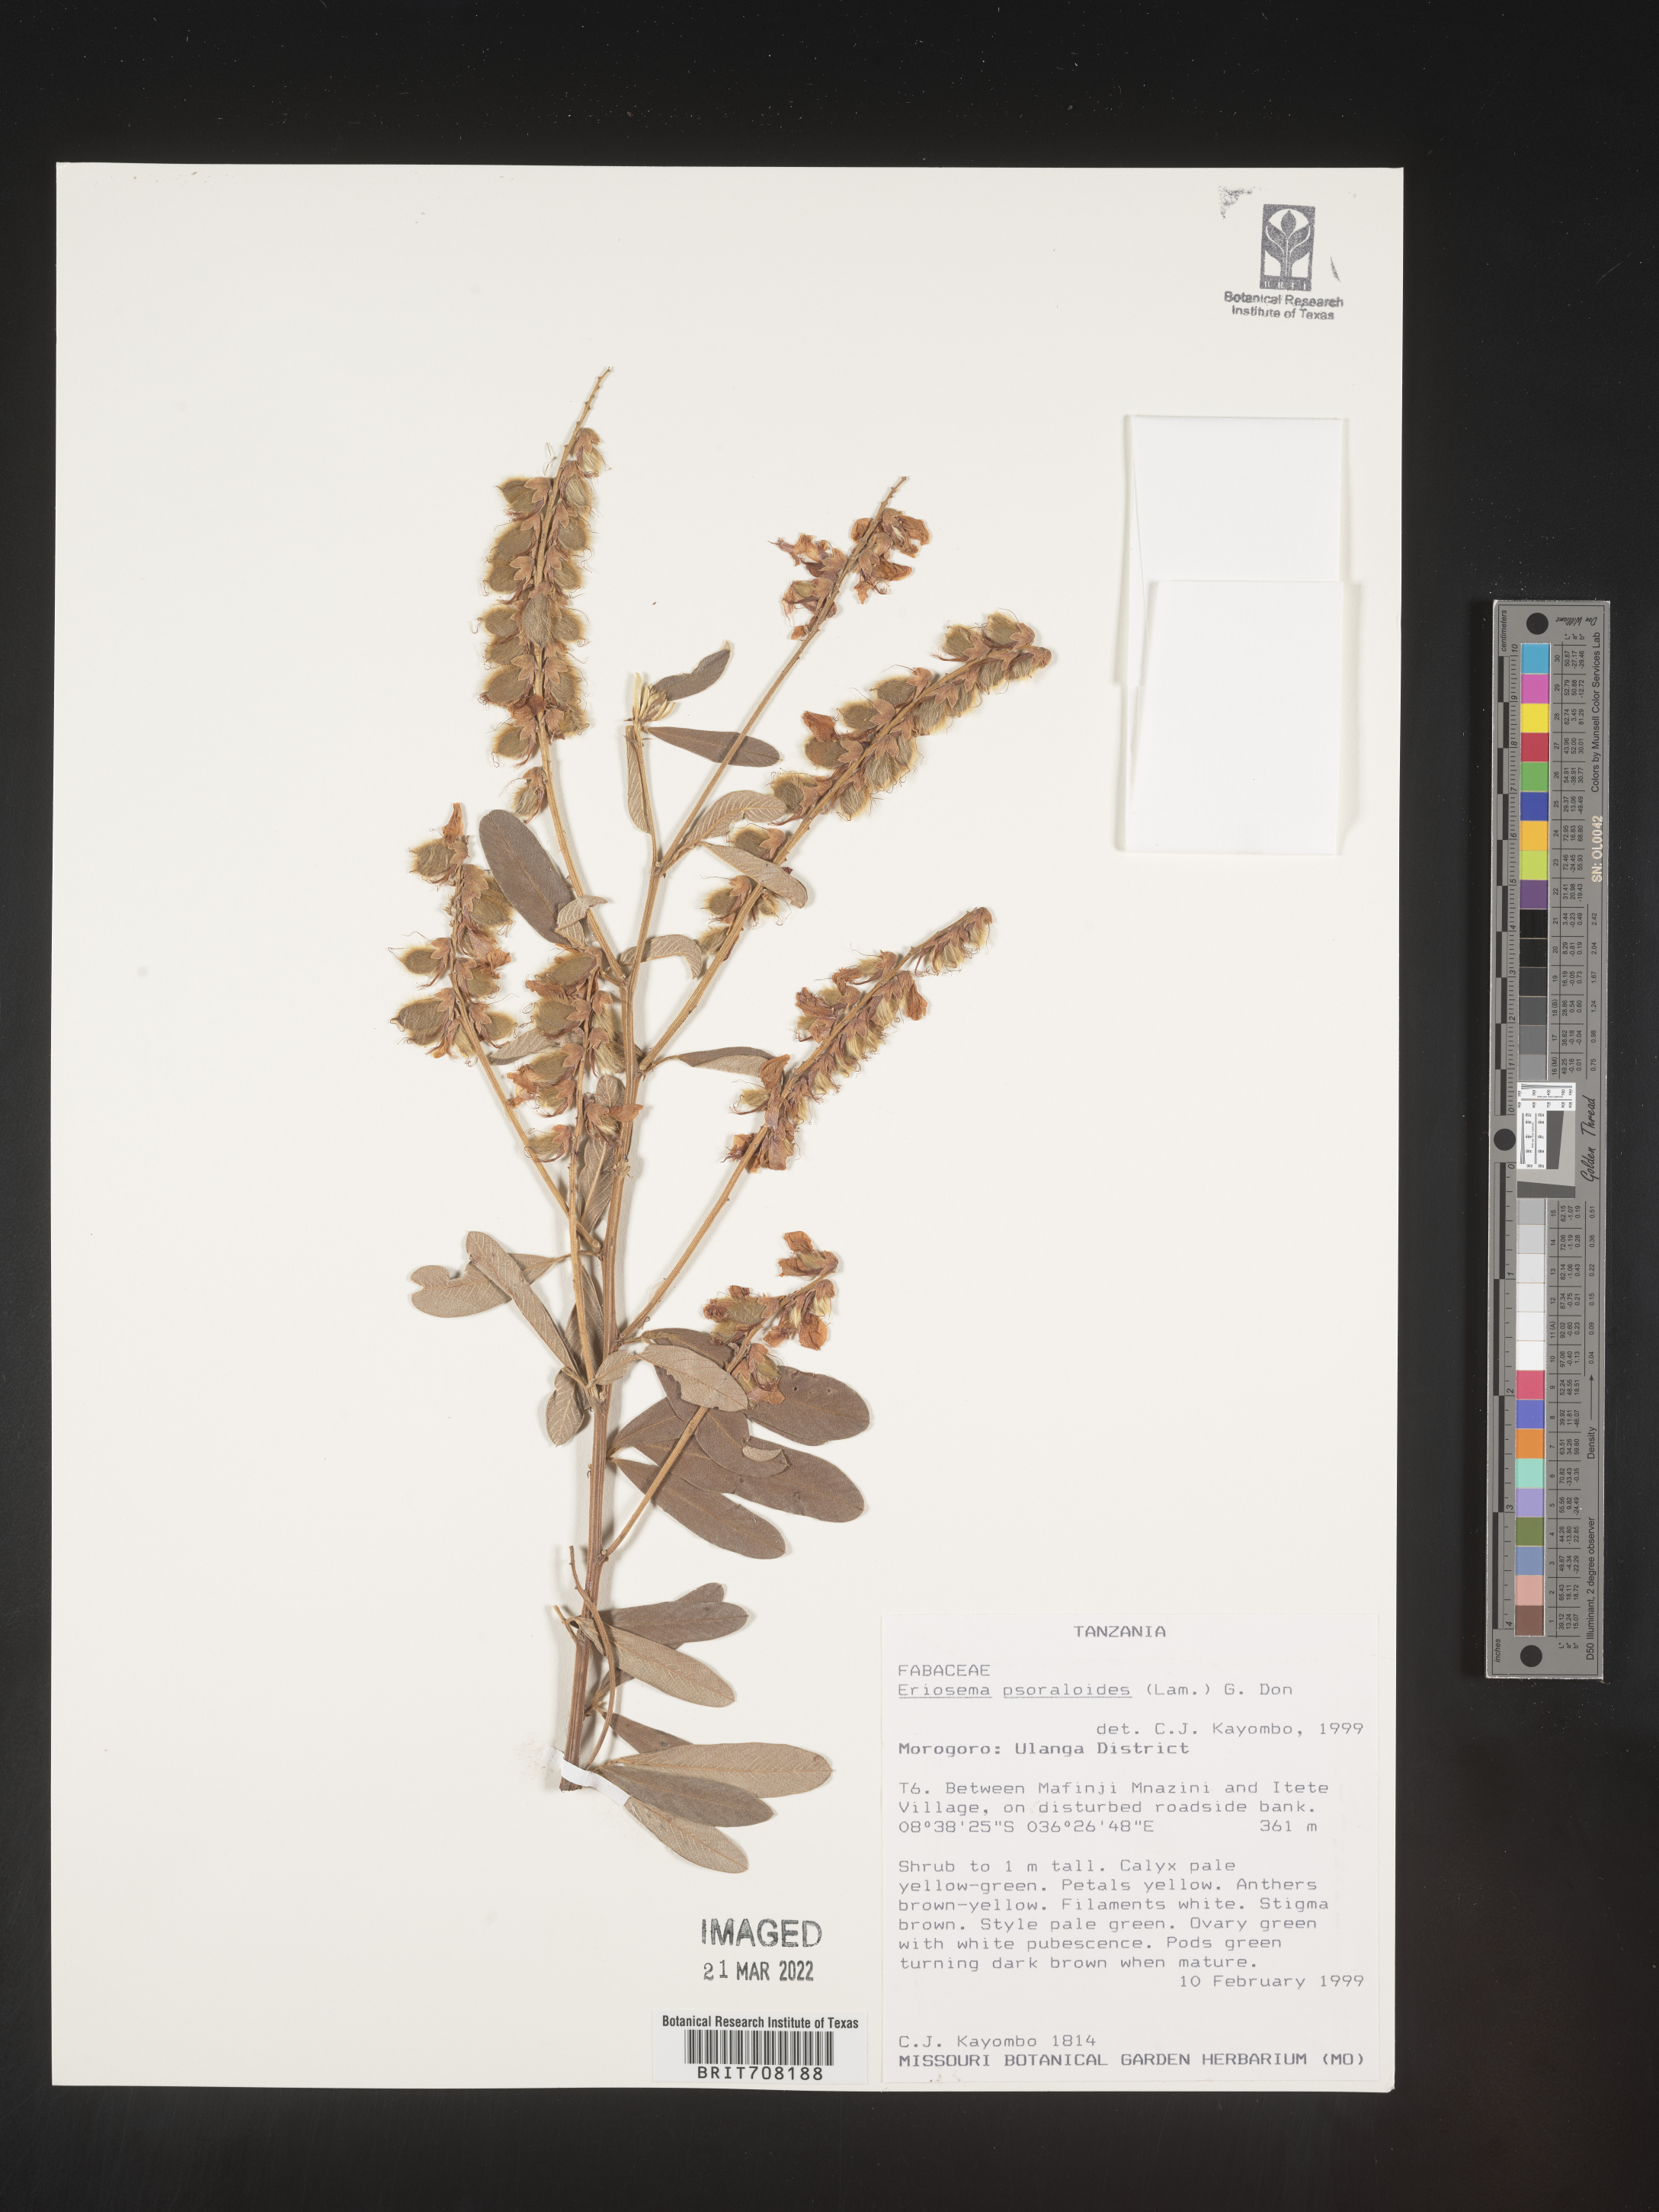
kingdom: Plantae
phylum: Tracheophyta
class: Magnoliopsida
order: Fabales
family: Fabaceae
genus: Eriosema
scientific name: Eriosema
